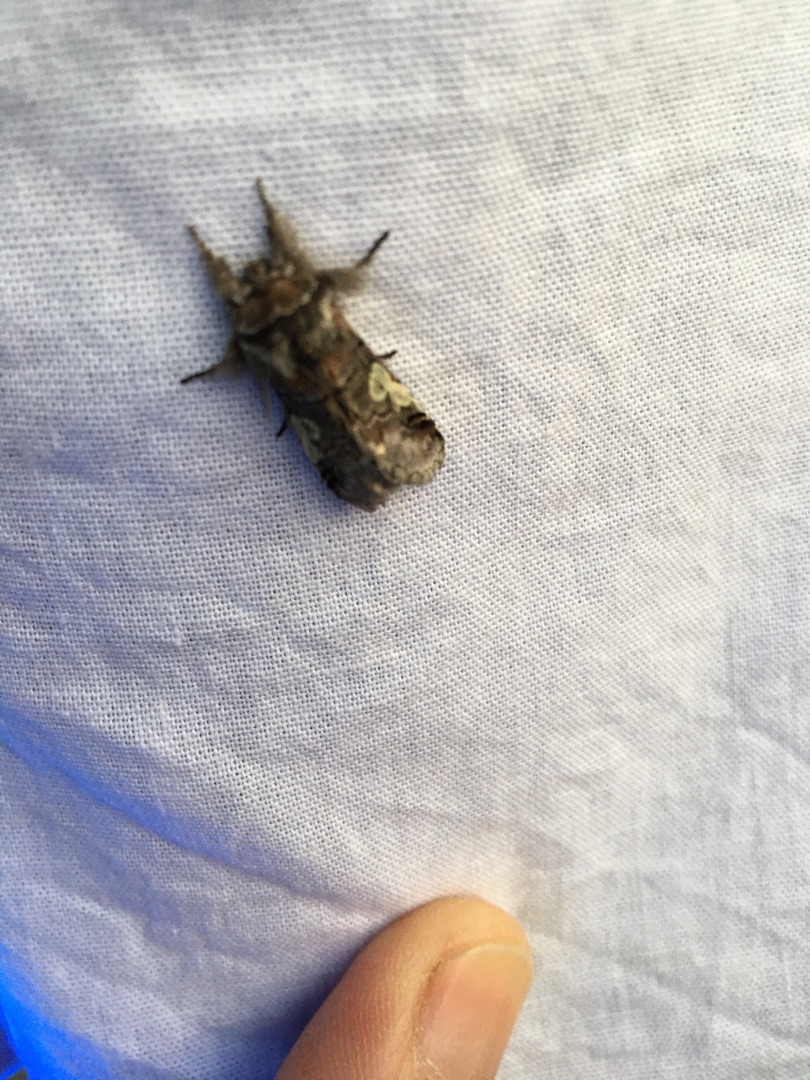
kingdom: Animalia
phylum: Arthropoda
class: Insecta
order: Lepidoptera
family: Noctuidae
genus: Diloba
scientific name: Diloba caeruleocephala
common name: Blåhoved
